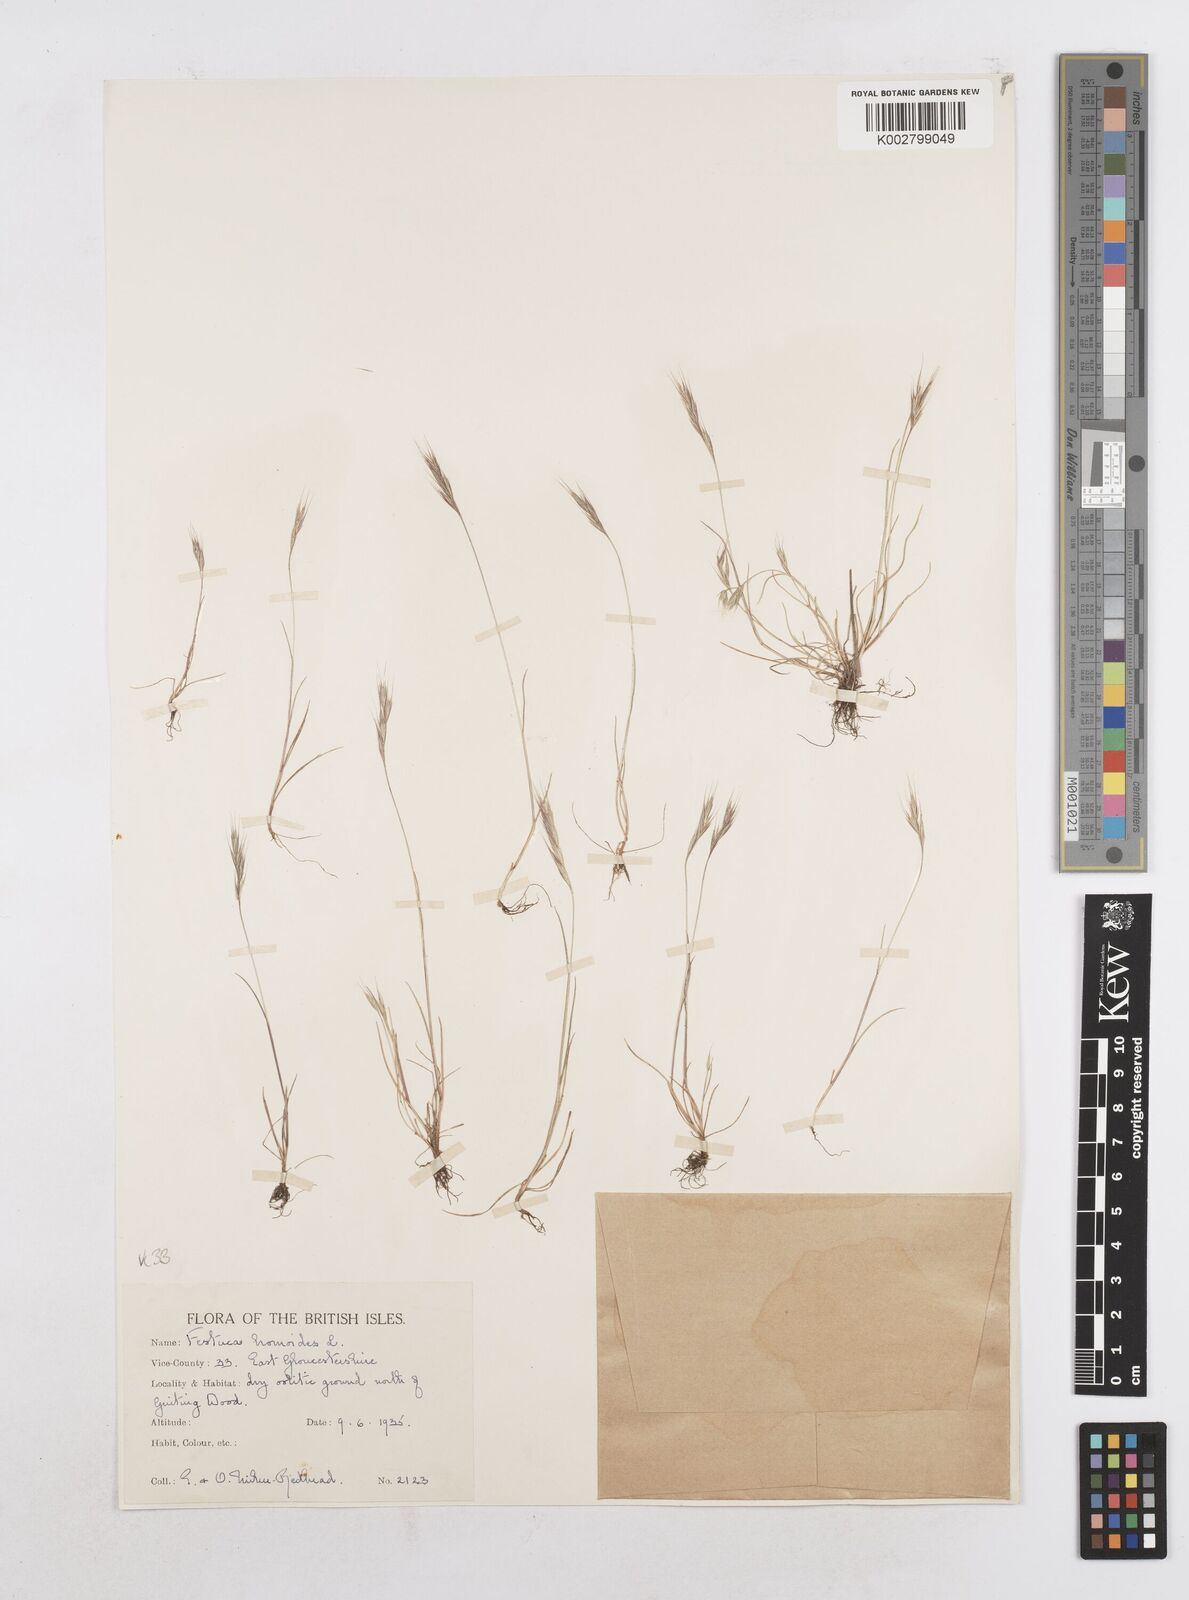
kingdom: Plantae
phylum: Tracheophyta
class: Liliopsida
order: Poales
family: Poaceae
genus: Festuca
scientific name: Festuca bromoides
